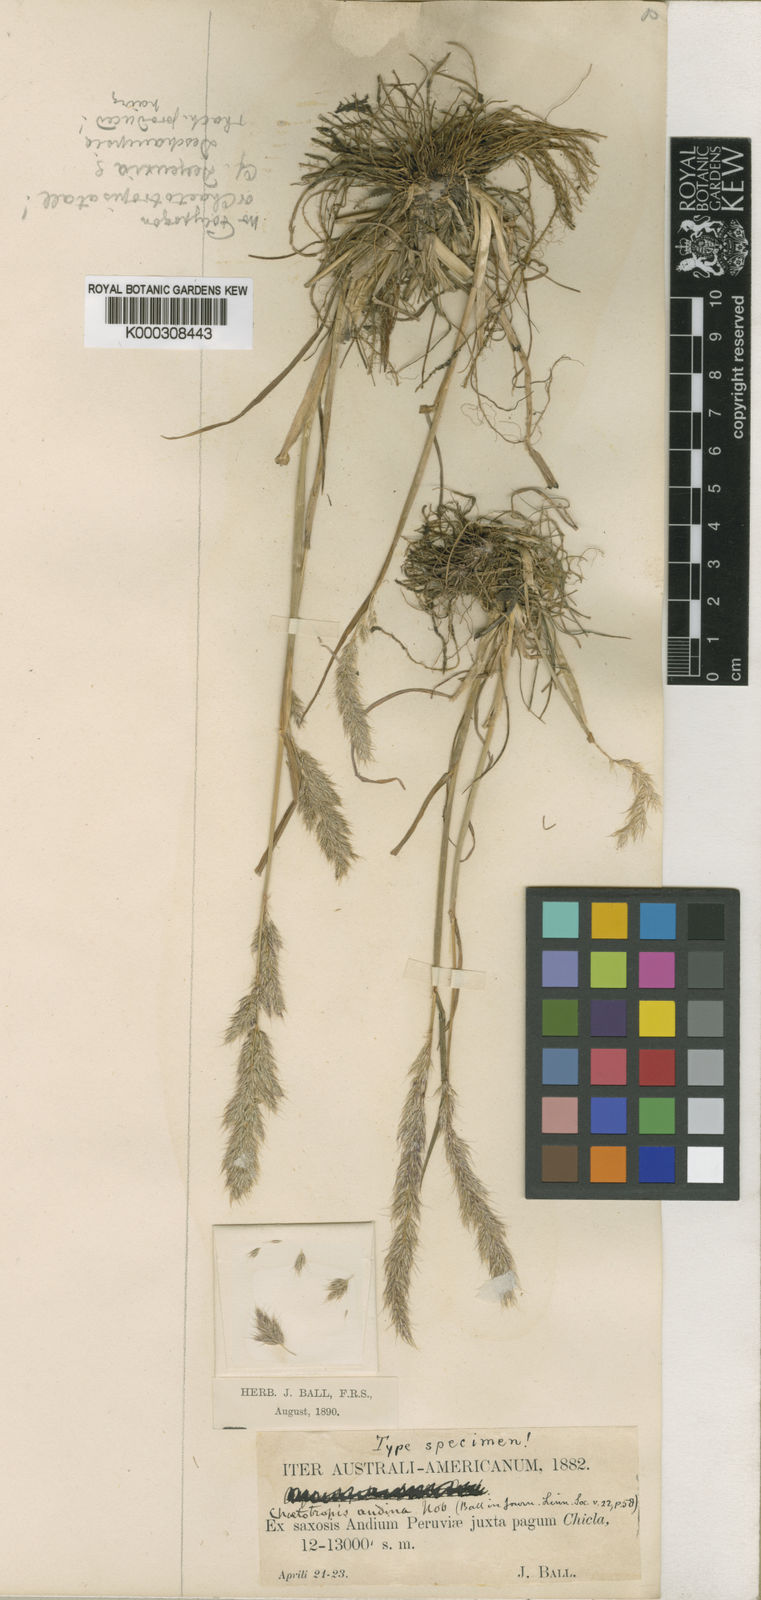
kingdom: Plantae
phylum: Tracheophyta
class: Liliopsida
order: Poales
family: Poaceae
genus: Cinnagrostis
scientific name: Cinnagrostis heterophylla
